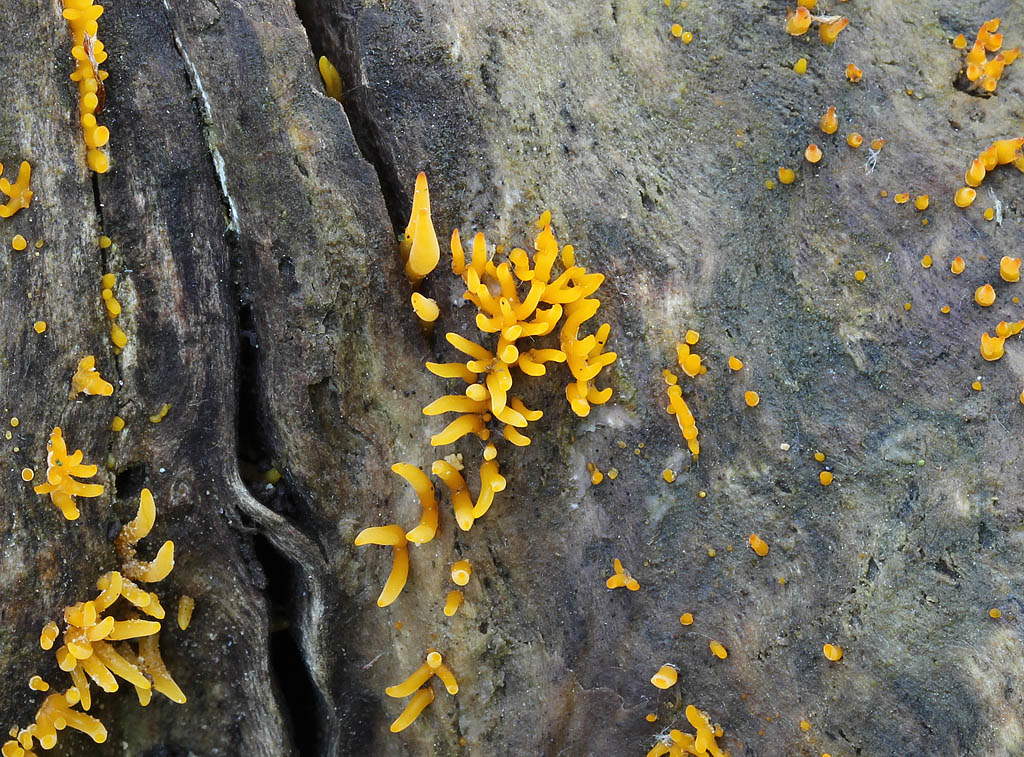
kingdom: Fungi
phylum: Basidiomycota
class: Dacrymycetes
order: Dacrymycetales
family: Dacrymycetaceae
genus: Calocera
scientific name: Calocera cornea
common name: liden guldgaffel
